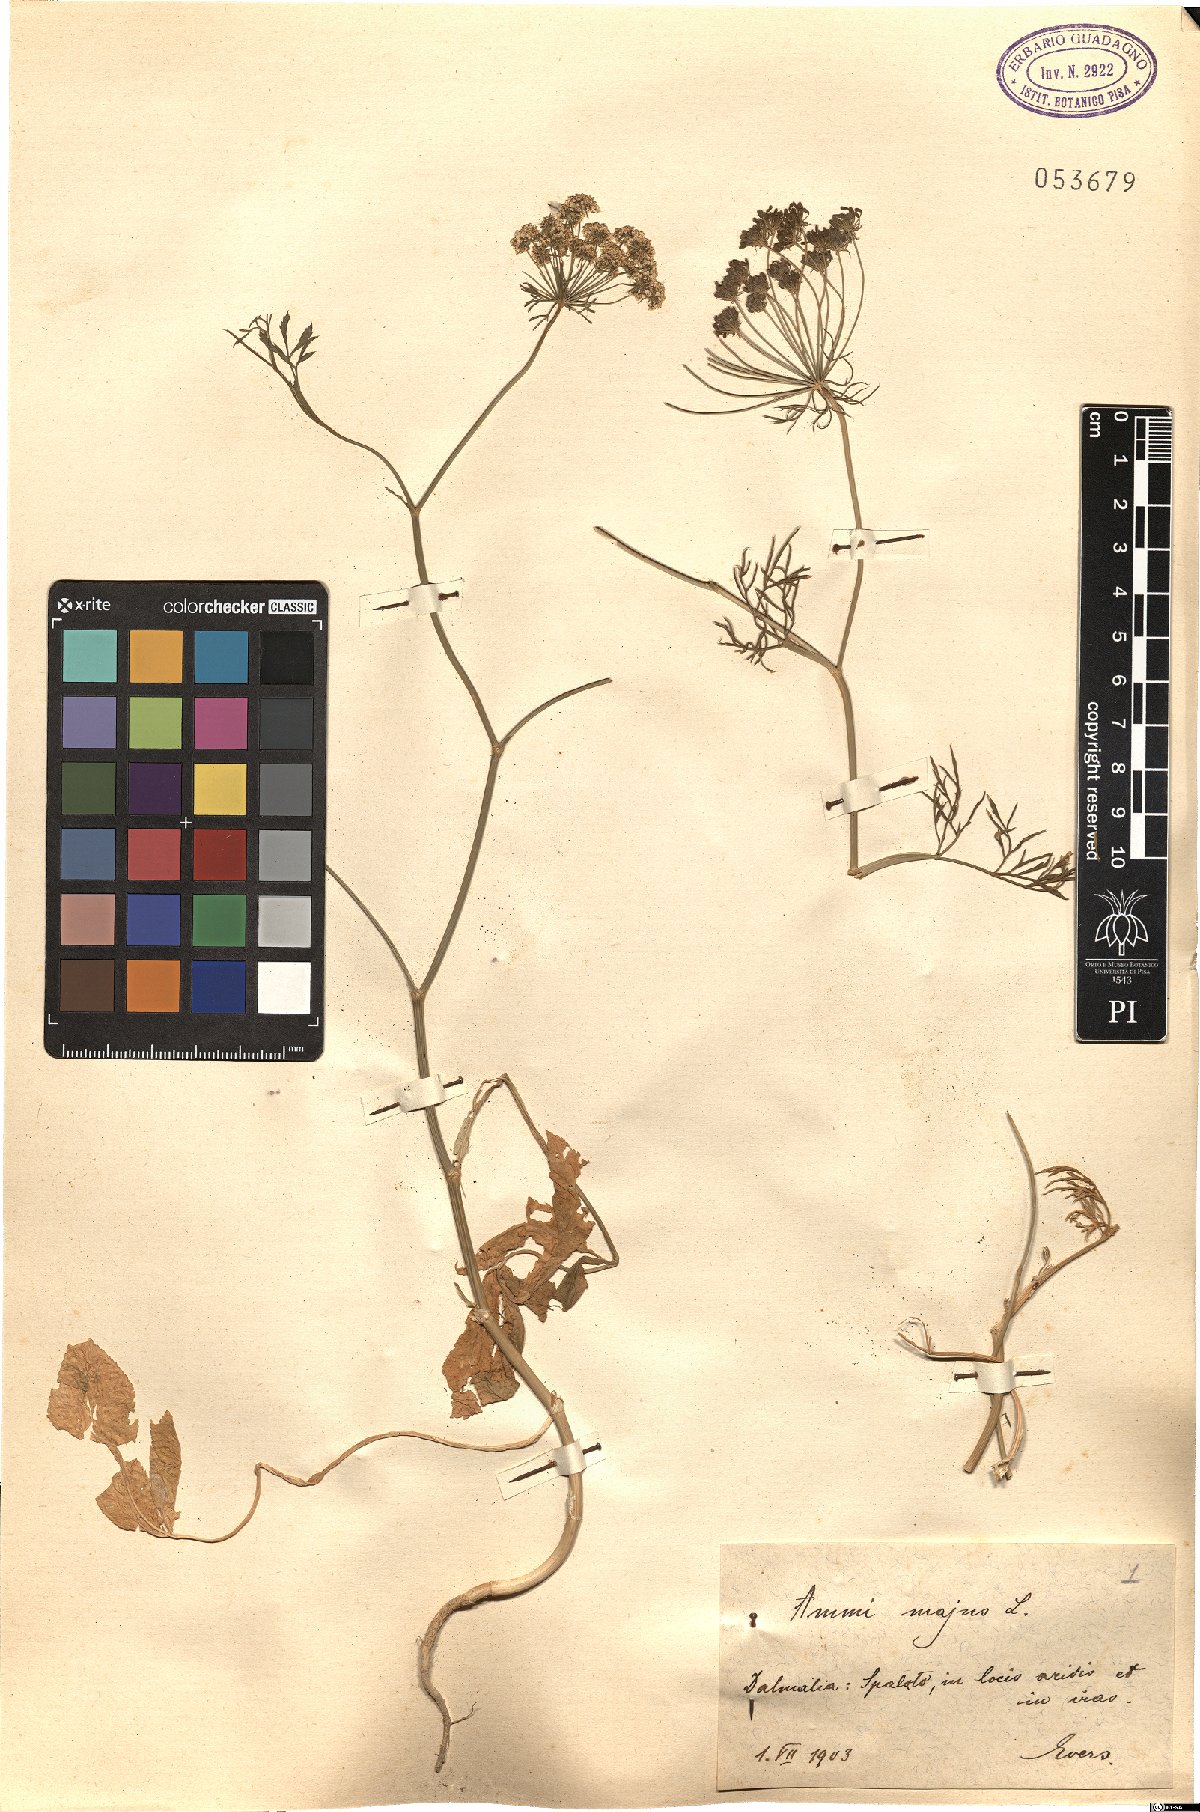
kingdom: Plantae
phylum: Tracheophyta
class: Magnoliopsida
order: Apiales
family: Apiaceae
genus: Ammi
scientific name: Ammi majus
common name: Bullwort
